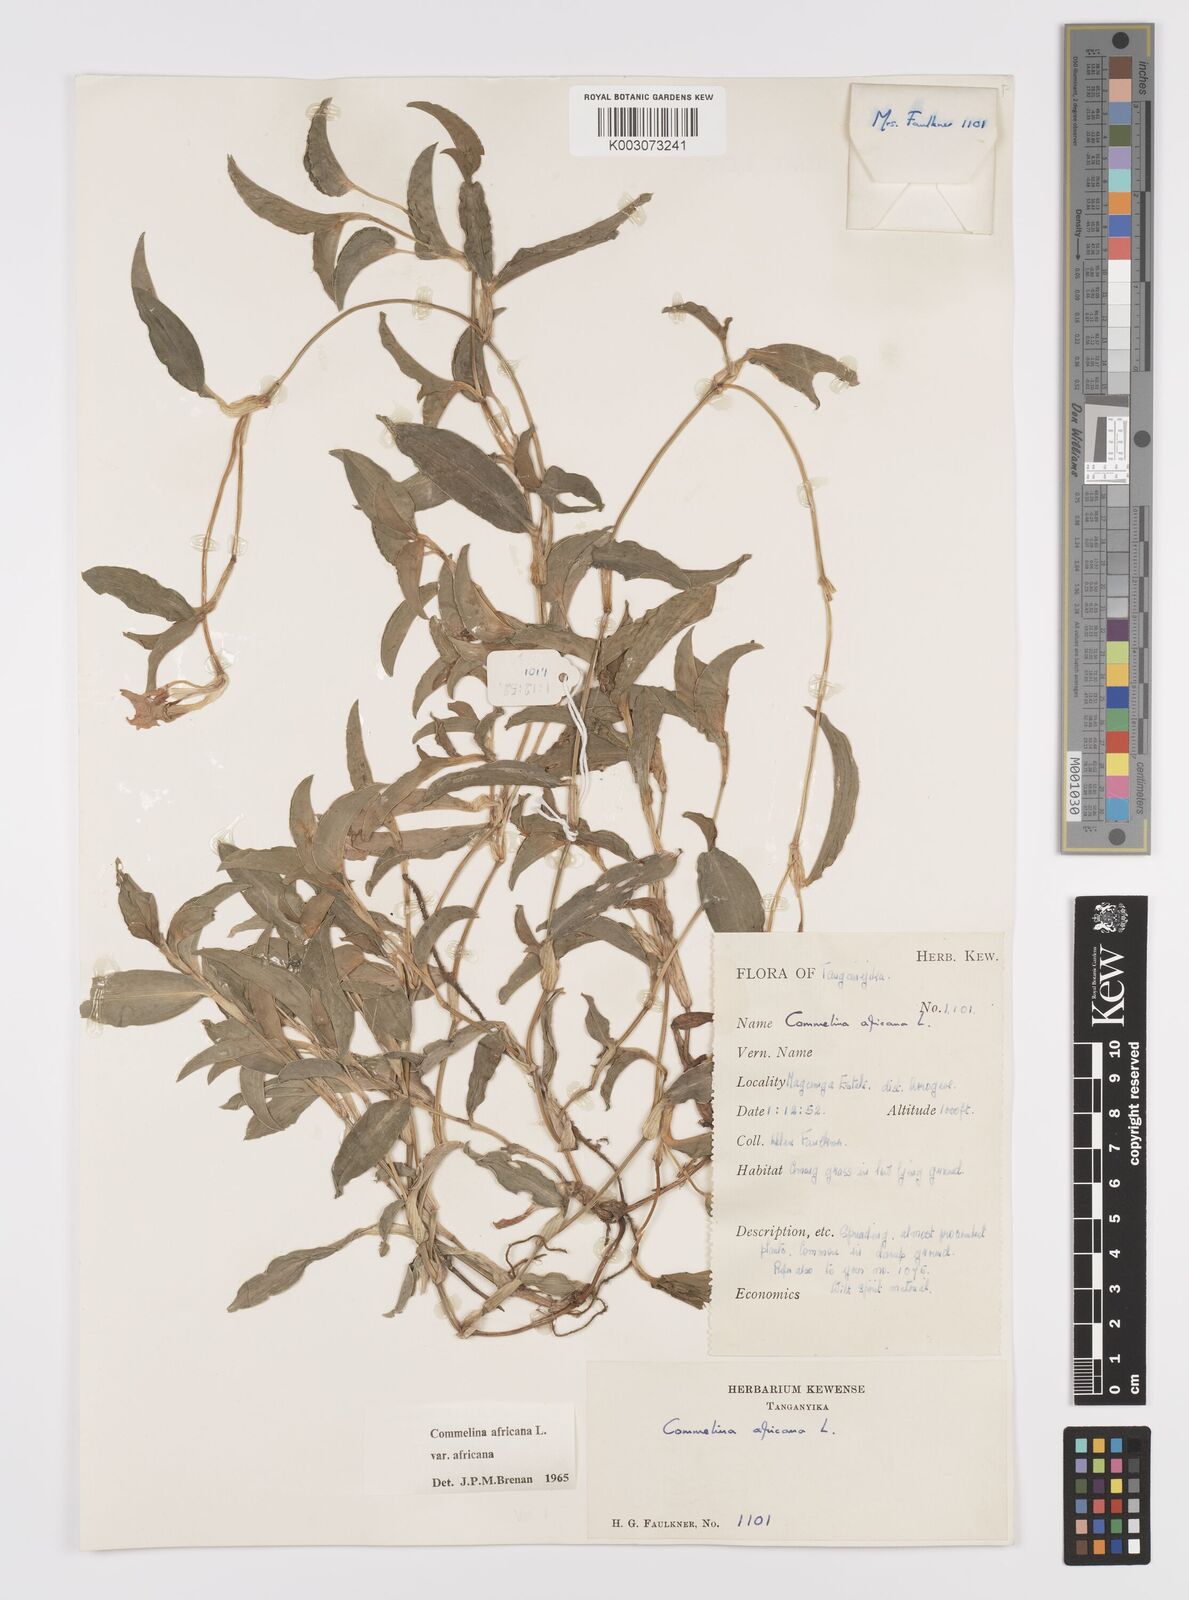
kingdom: Plantae
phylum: Tracheophyta
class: Liliopsida
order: Commelinales
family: Commelinaceae
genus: Commelina
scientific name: Commelina africana
